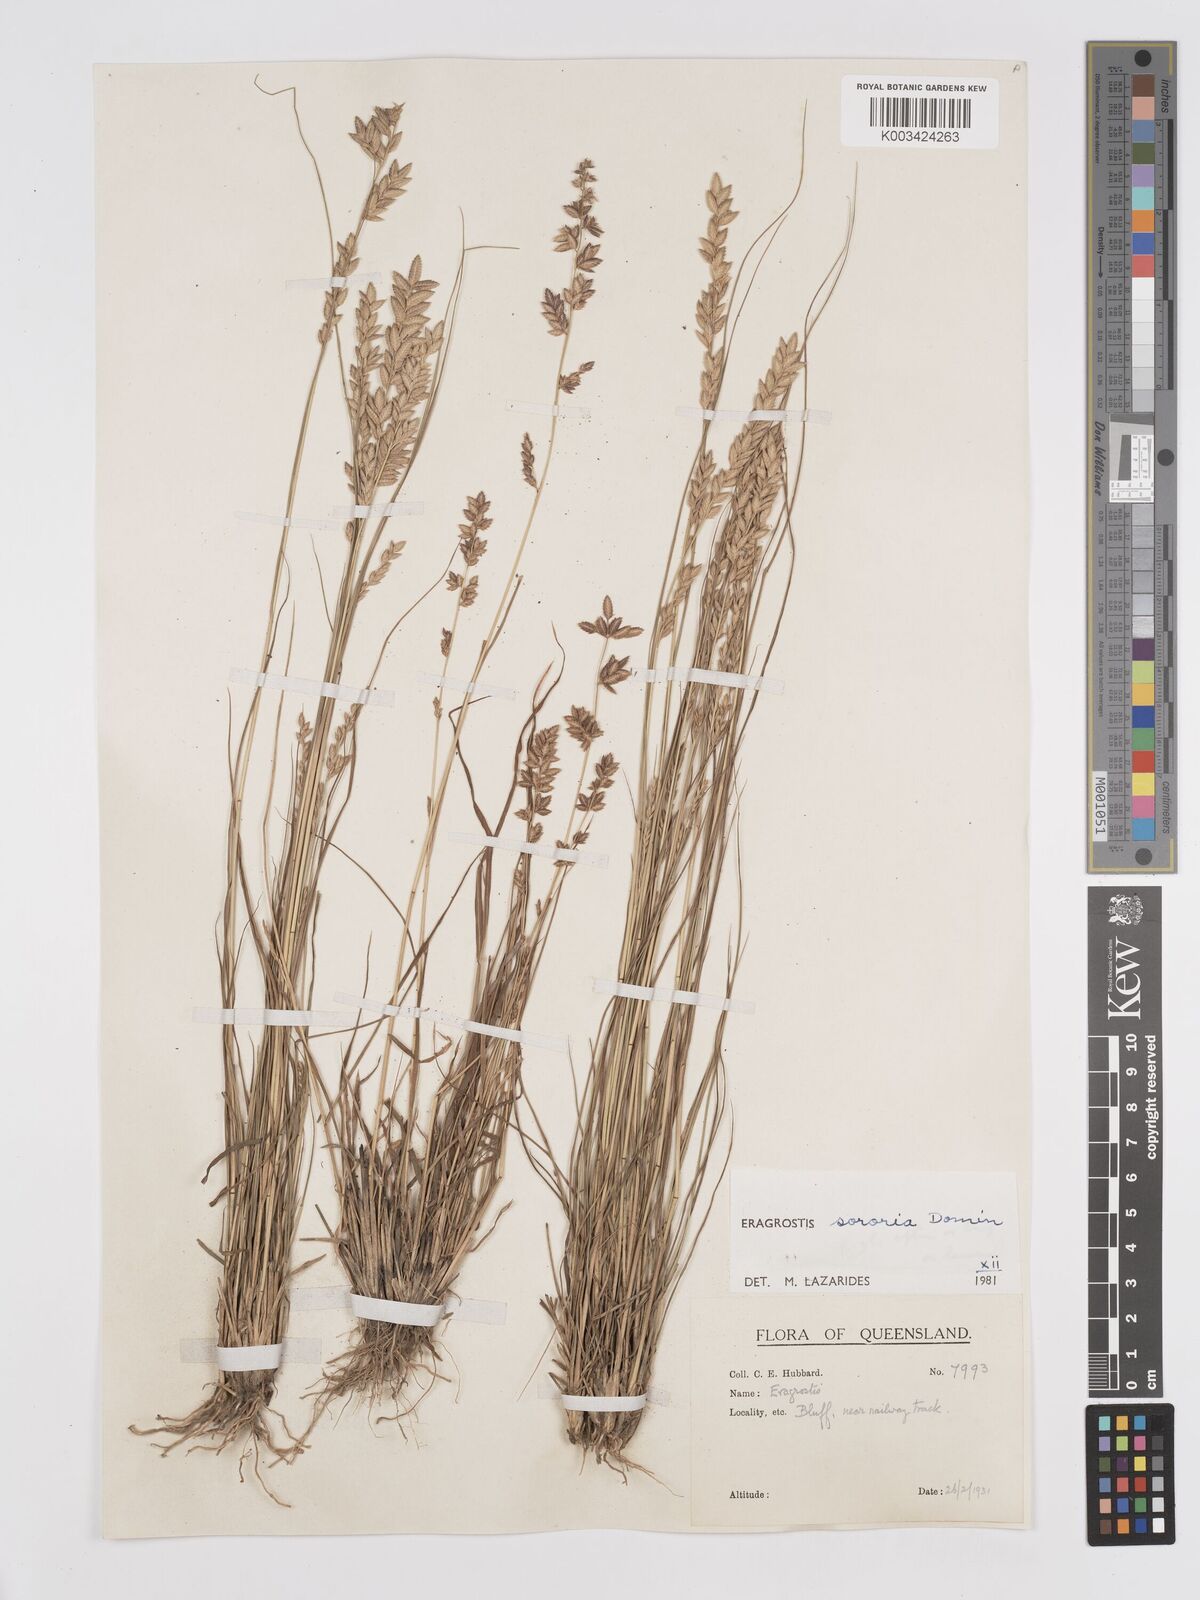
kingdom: Plantae
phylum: Tracheophyta
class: Liliopsida
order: Poales
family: Poaceae
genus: Eragrostis
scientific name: Eragrostis sororia
